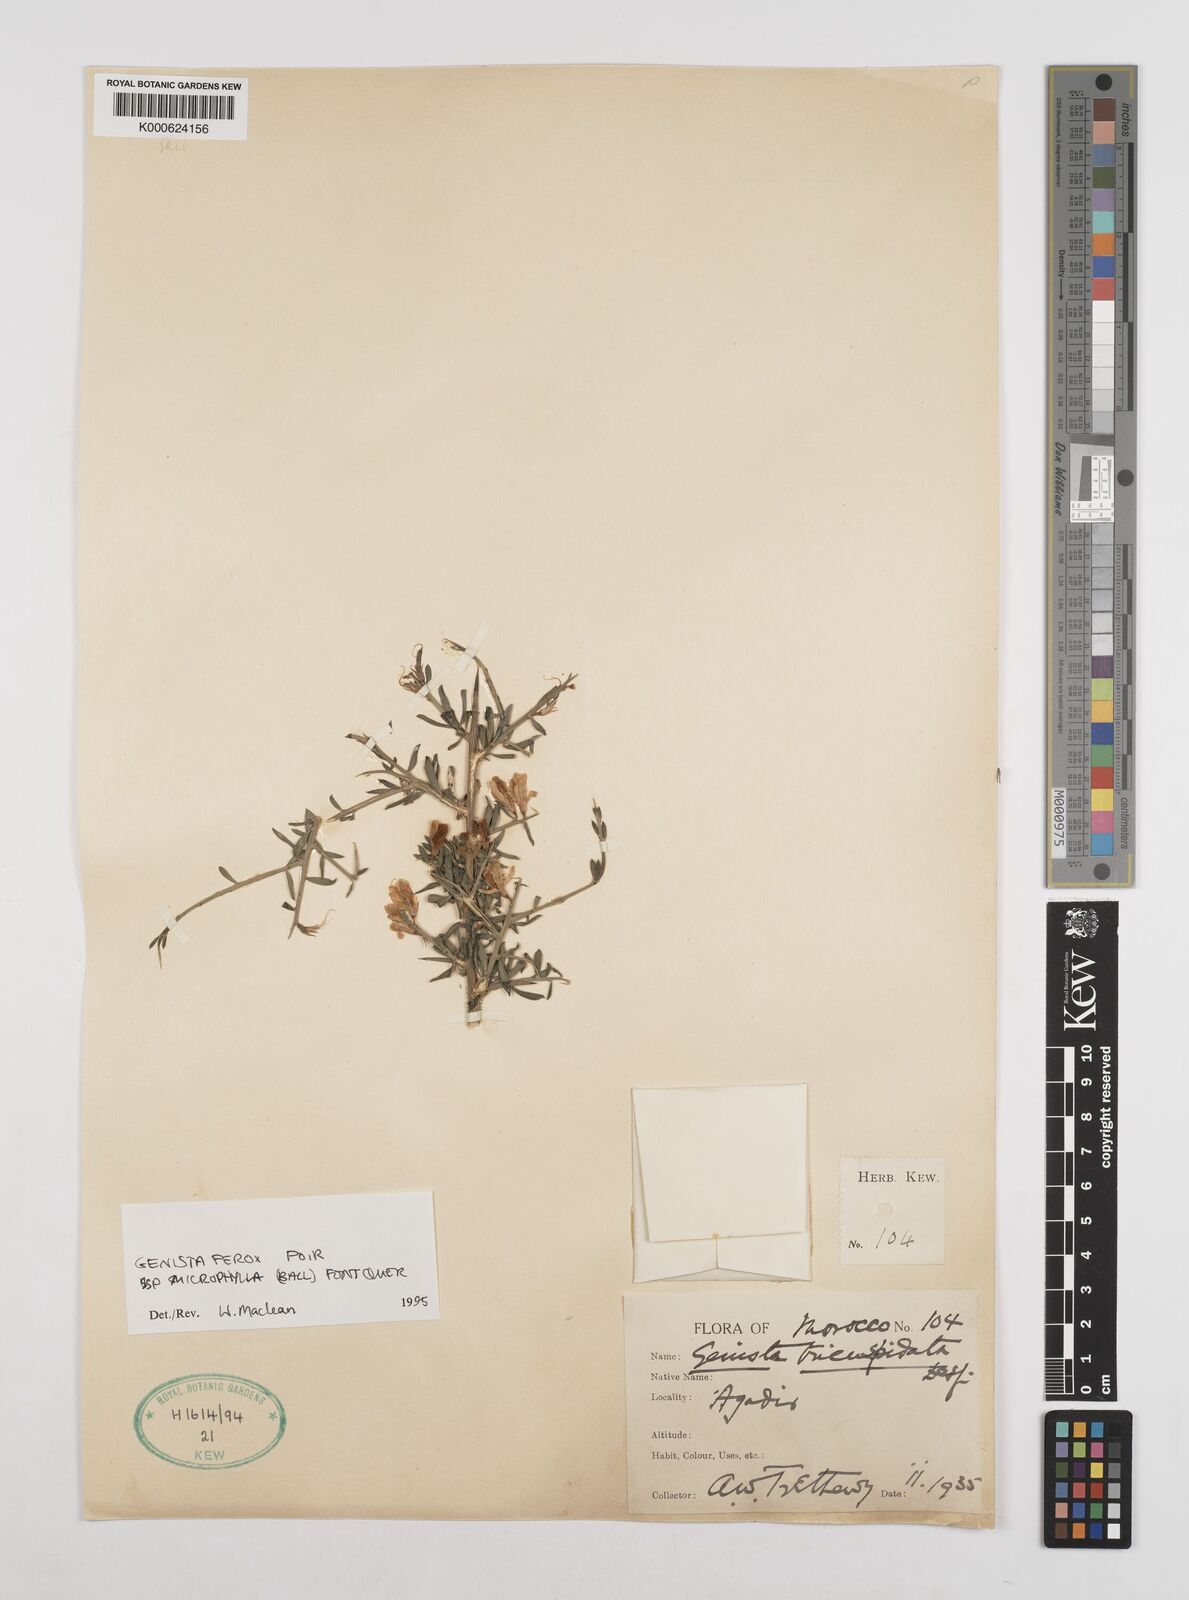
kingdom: Plantae
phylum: Tracheophyta
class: Magnoliopsida
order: Fabales
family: Fabaceae
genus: Genista
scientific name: Genista
